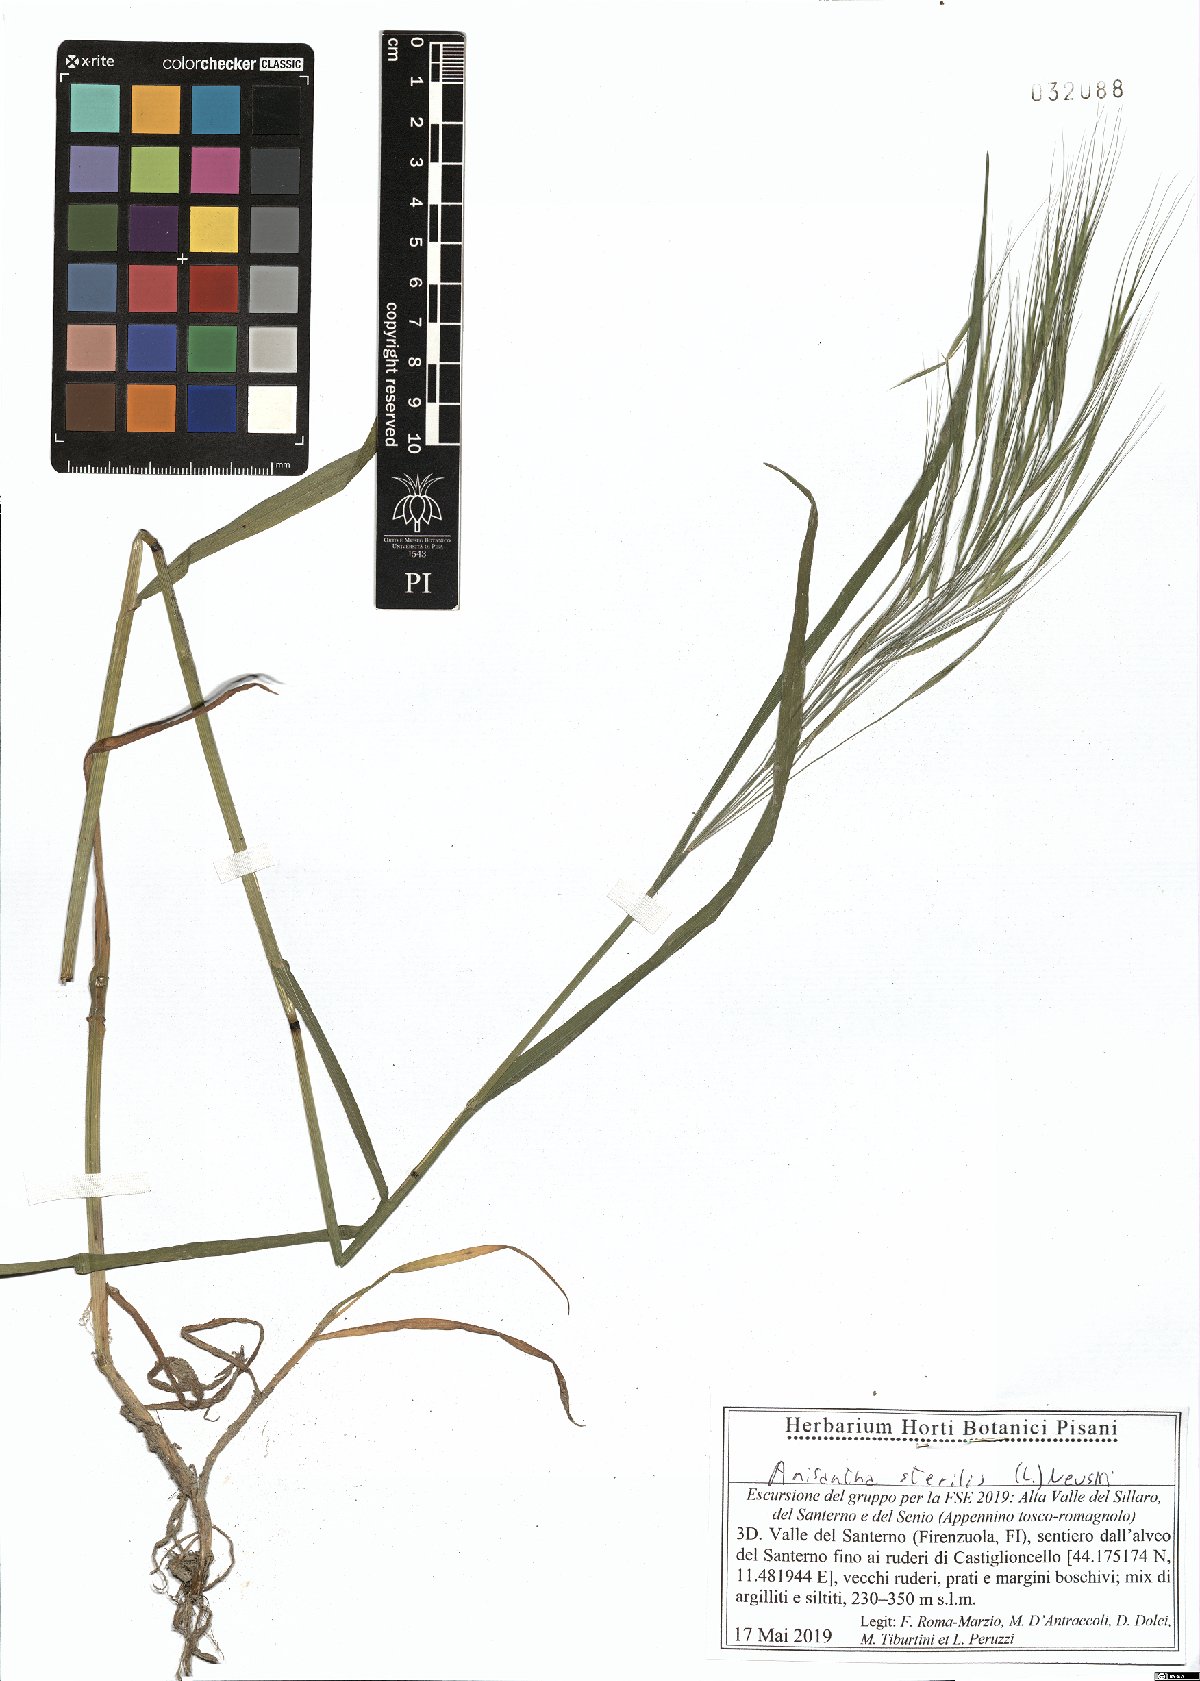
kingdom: Plantae
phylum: Tracheophyta
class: Liliopsida
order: Poales
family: Poaceae
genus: Bromus
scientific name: Bromus sterilis
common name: Poverty brome
